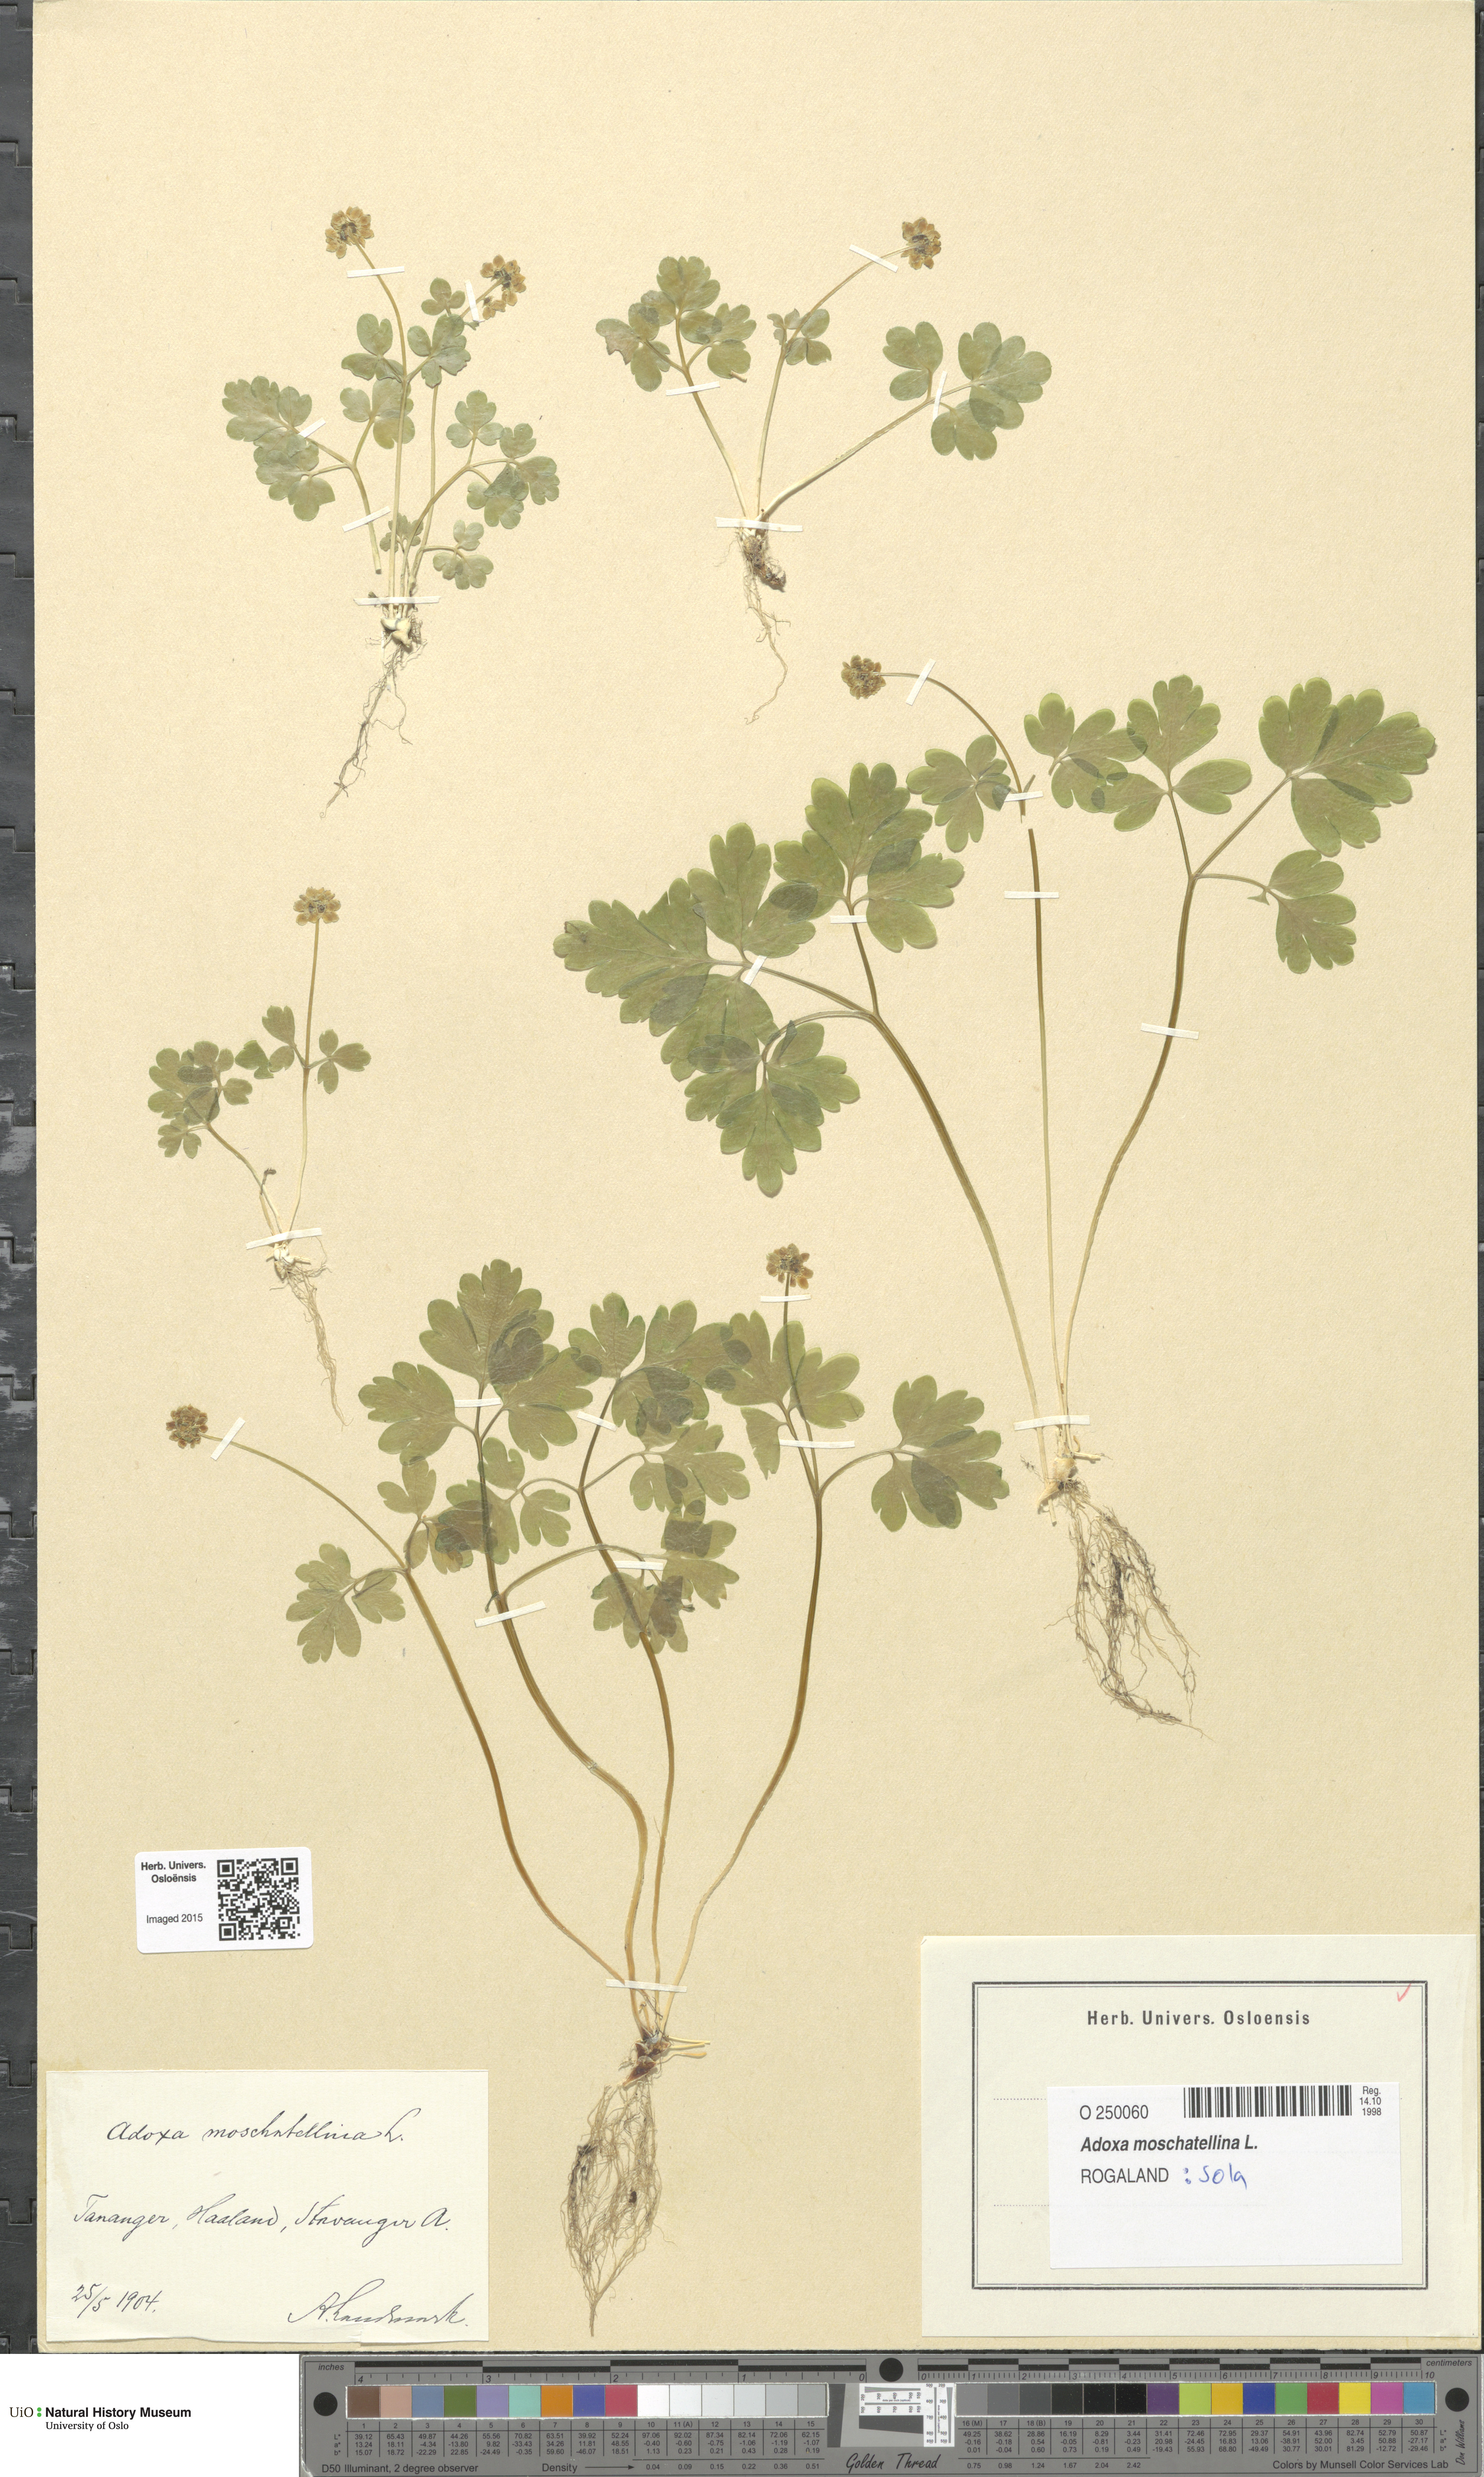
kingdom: Plantae
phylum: Tracheophyta
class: Magnoliopsida
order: Dipsacales
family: Viburnaceae
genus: Adoxa
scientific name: Adoxa moschatellina
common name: Moschatel
